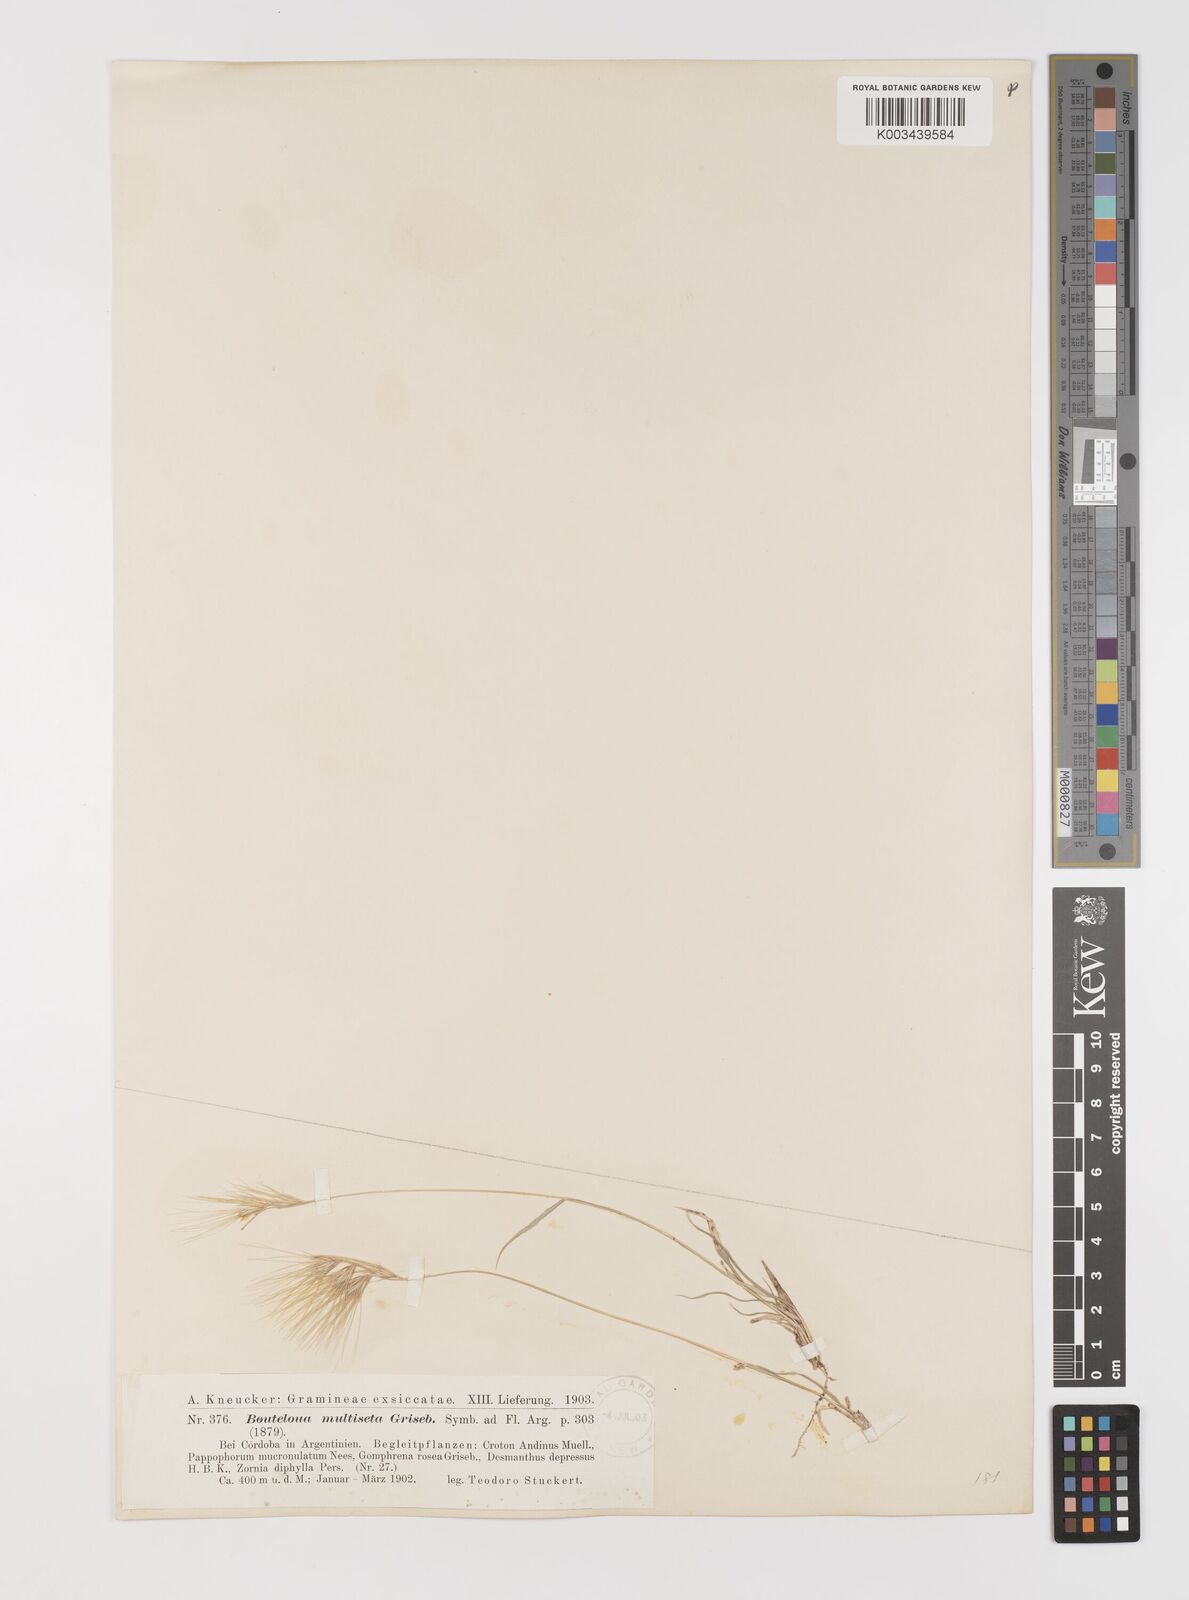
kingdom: Plantae
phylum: Tracheophyta
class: Liliopsida
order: Poales
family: Poaceae
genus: Bouteloua
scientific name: Bouteloua megapotamica
